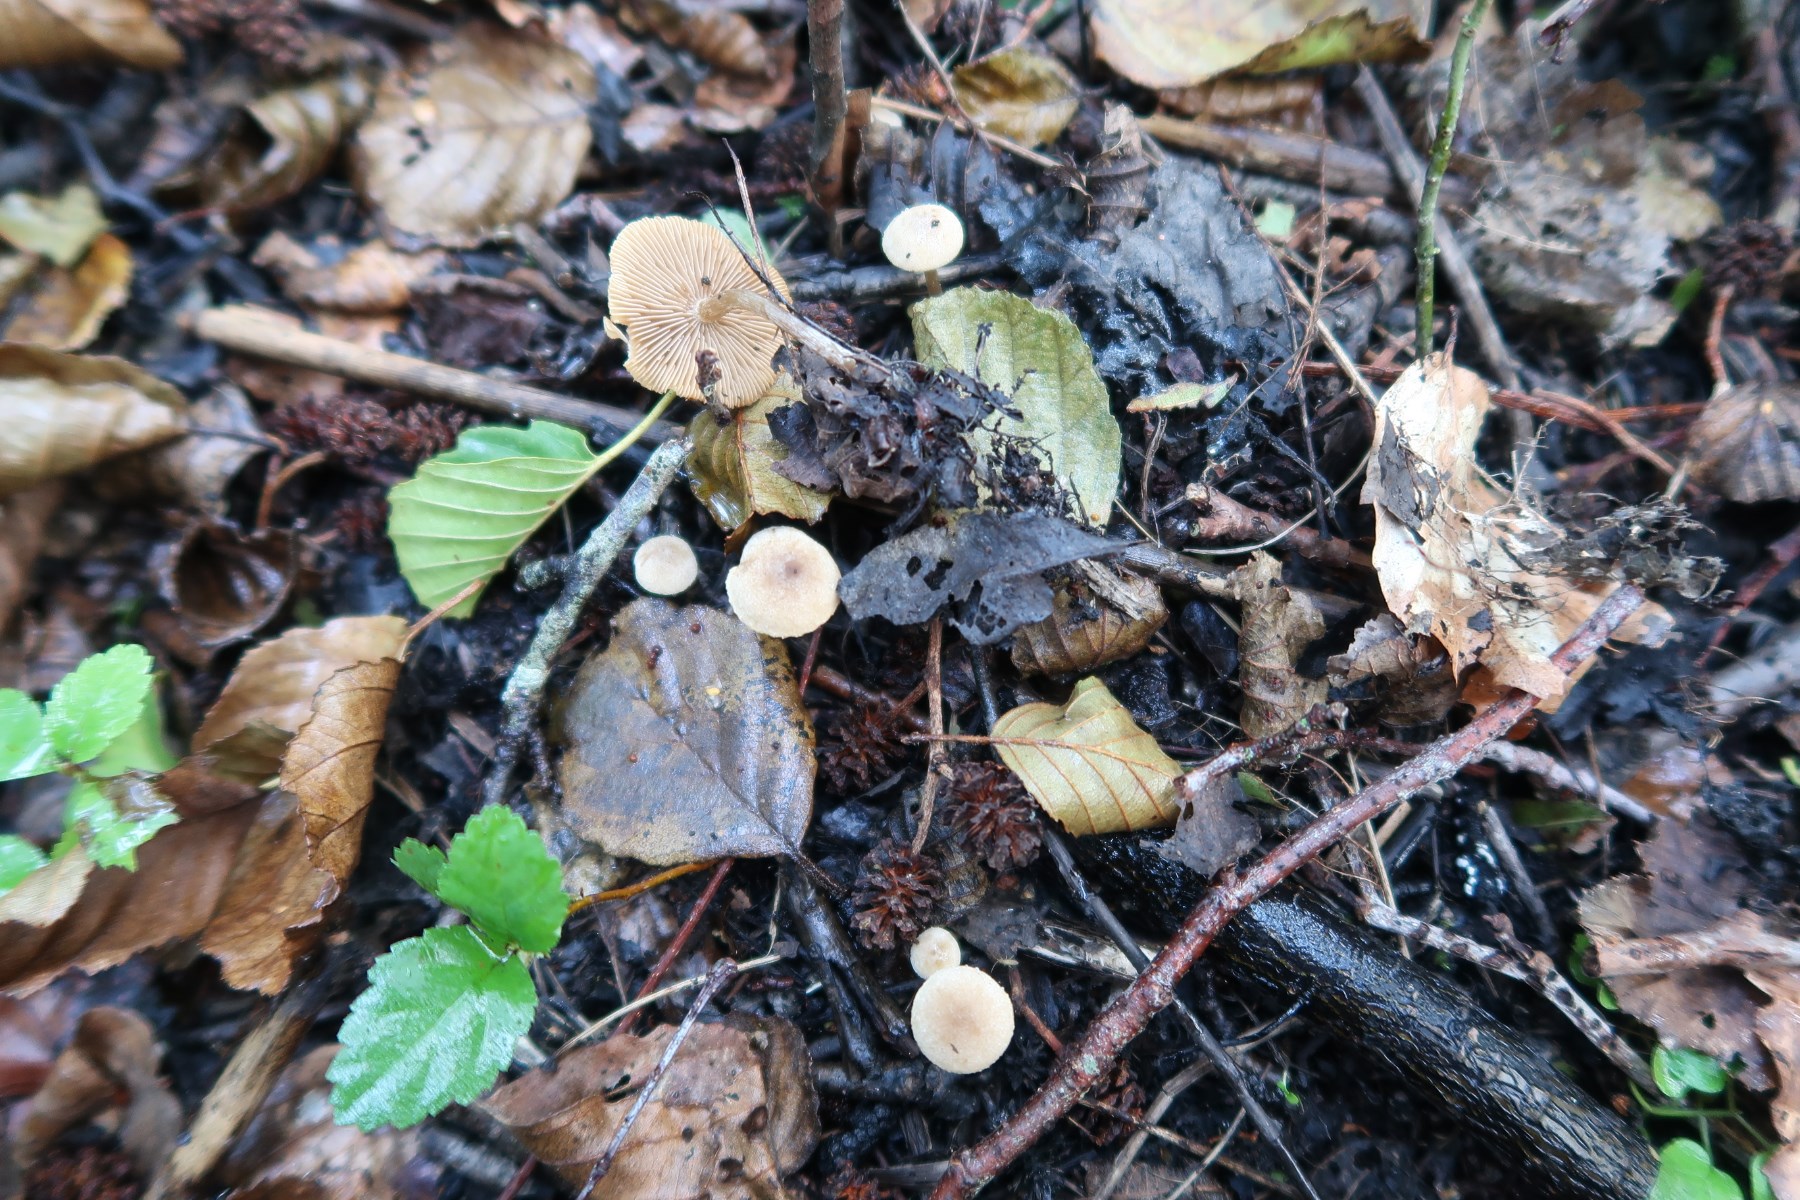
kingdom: Fungi
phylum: Basidiomycota
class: Agaricomycetes
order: Agaricales
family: Hymenogastraceae
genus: Naucoria
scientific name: Naucoria escharioides
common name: lys elle-knaphat
